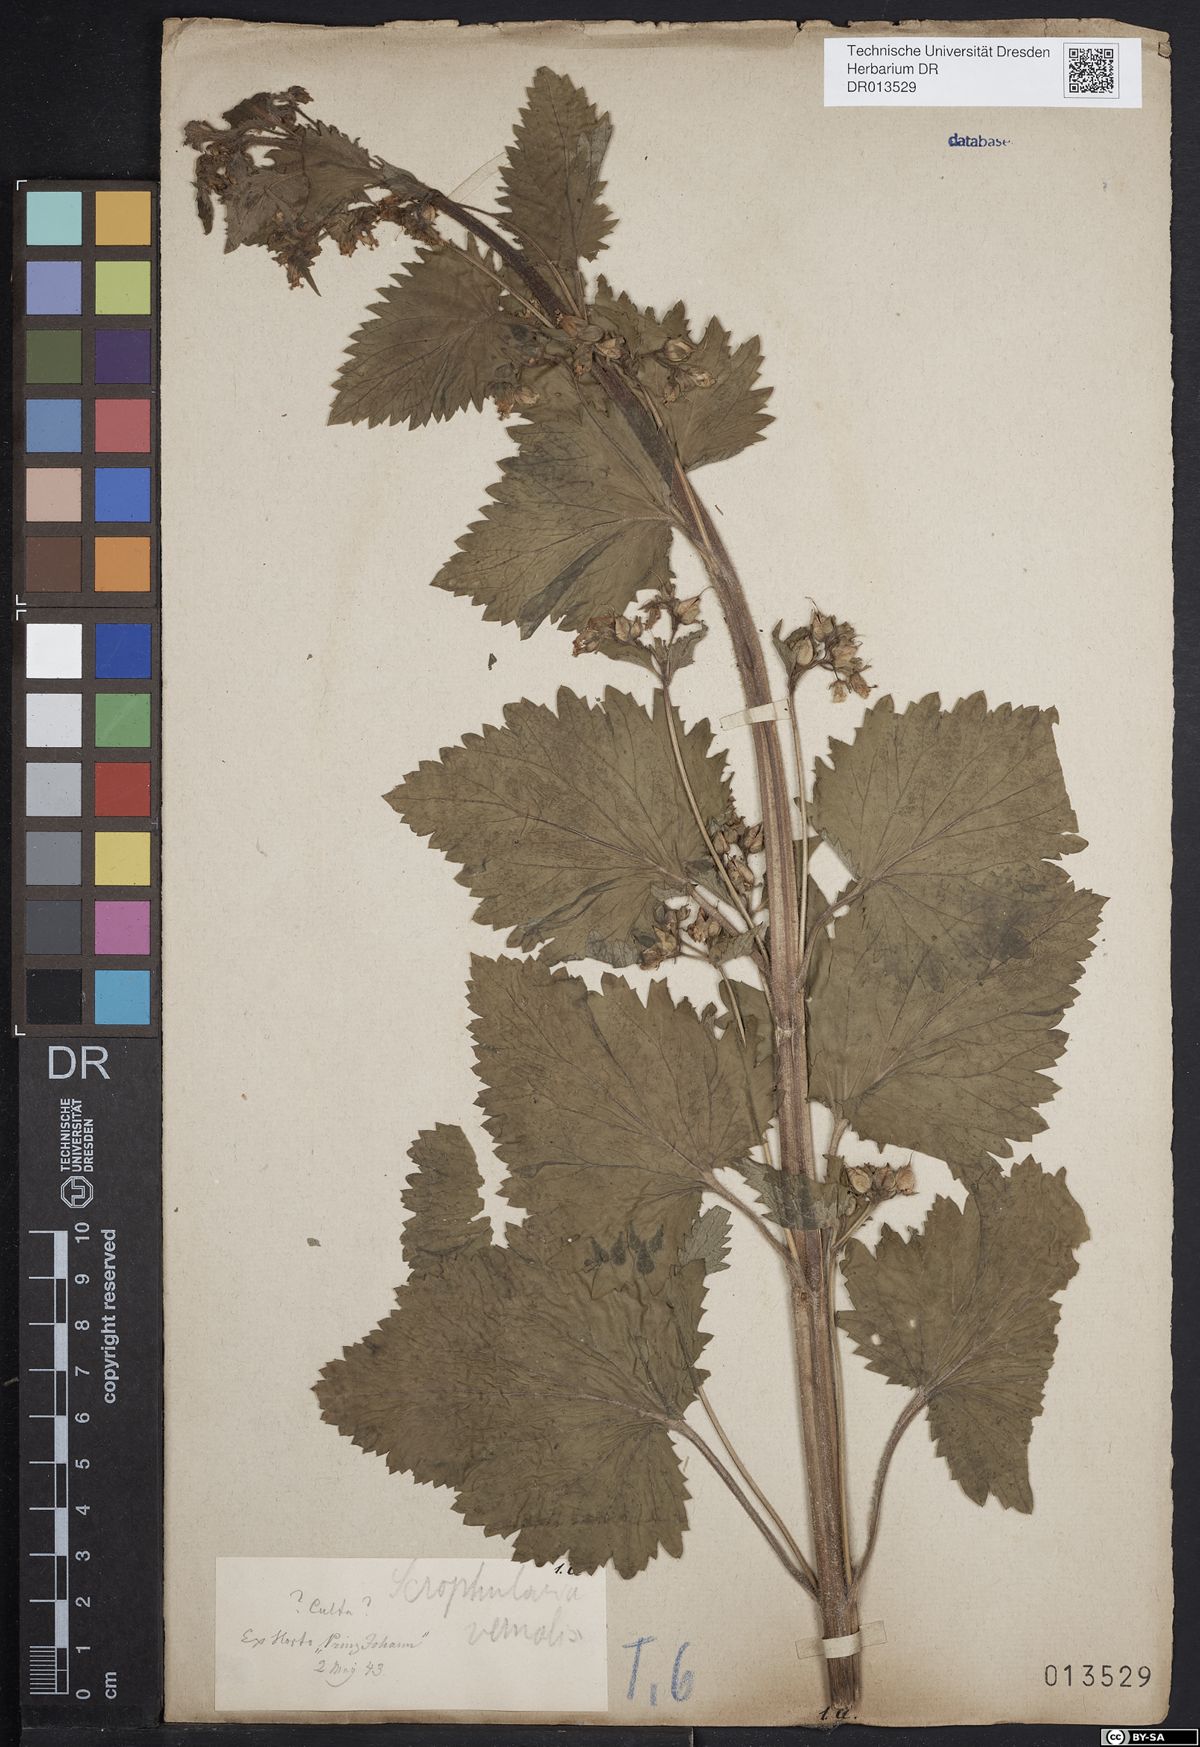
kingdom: Plantae
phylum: Tracheophyta
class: Magnoliopsida
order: Lamiales
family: Scrophulariaceae
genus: Scrophularia
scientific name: Scrophularia vernalis
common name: Yellow figwort
